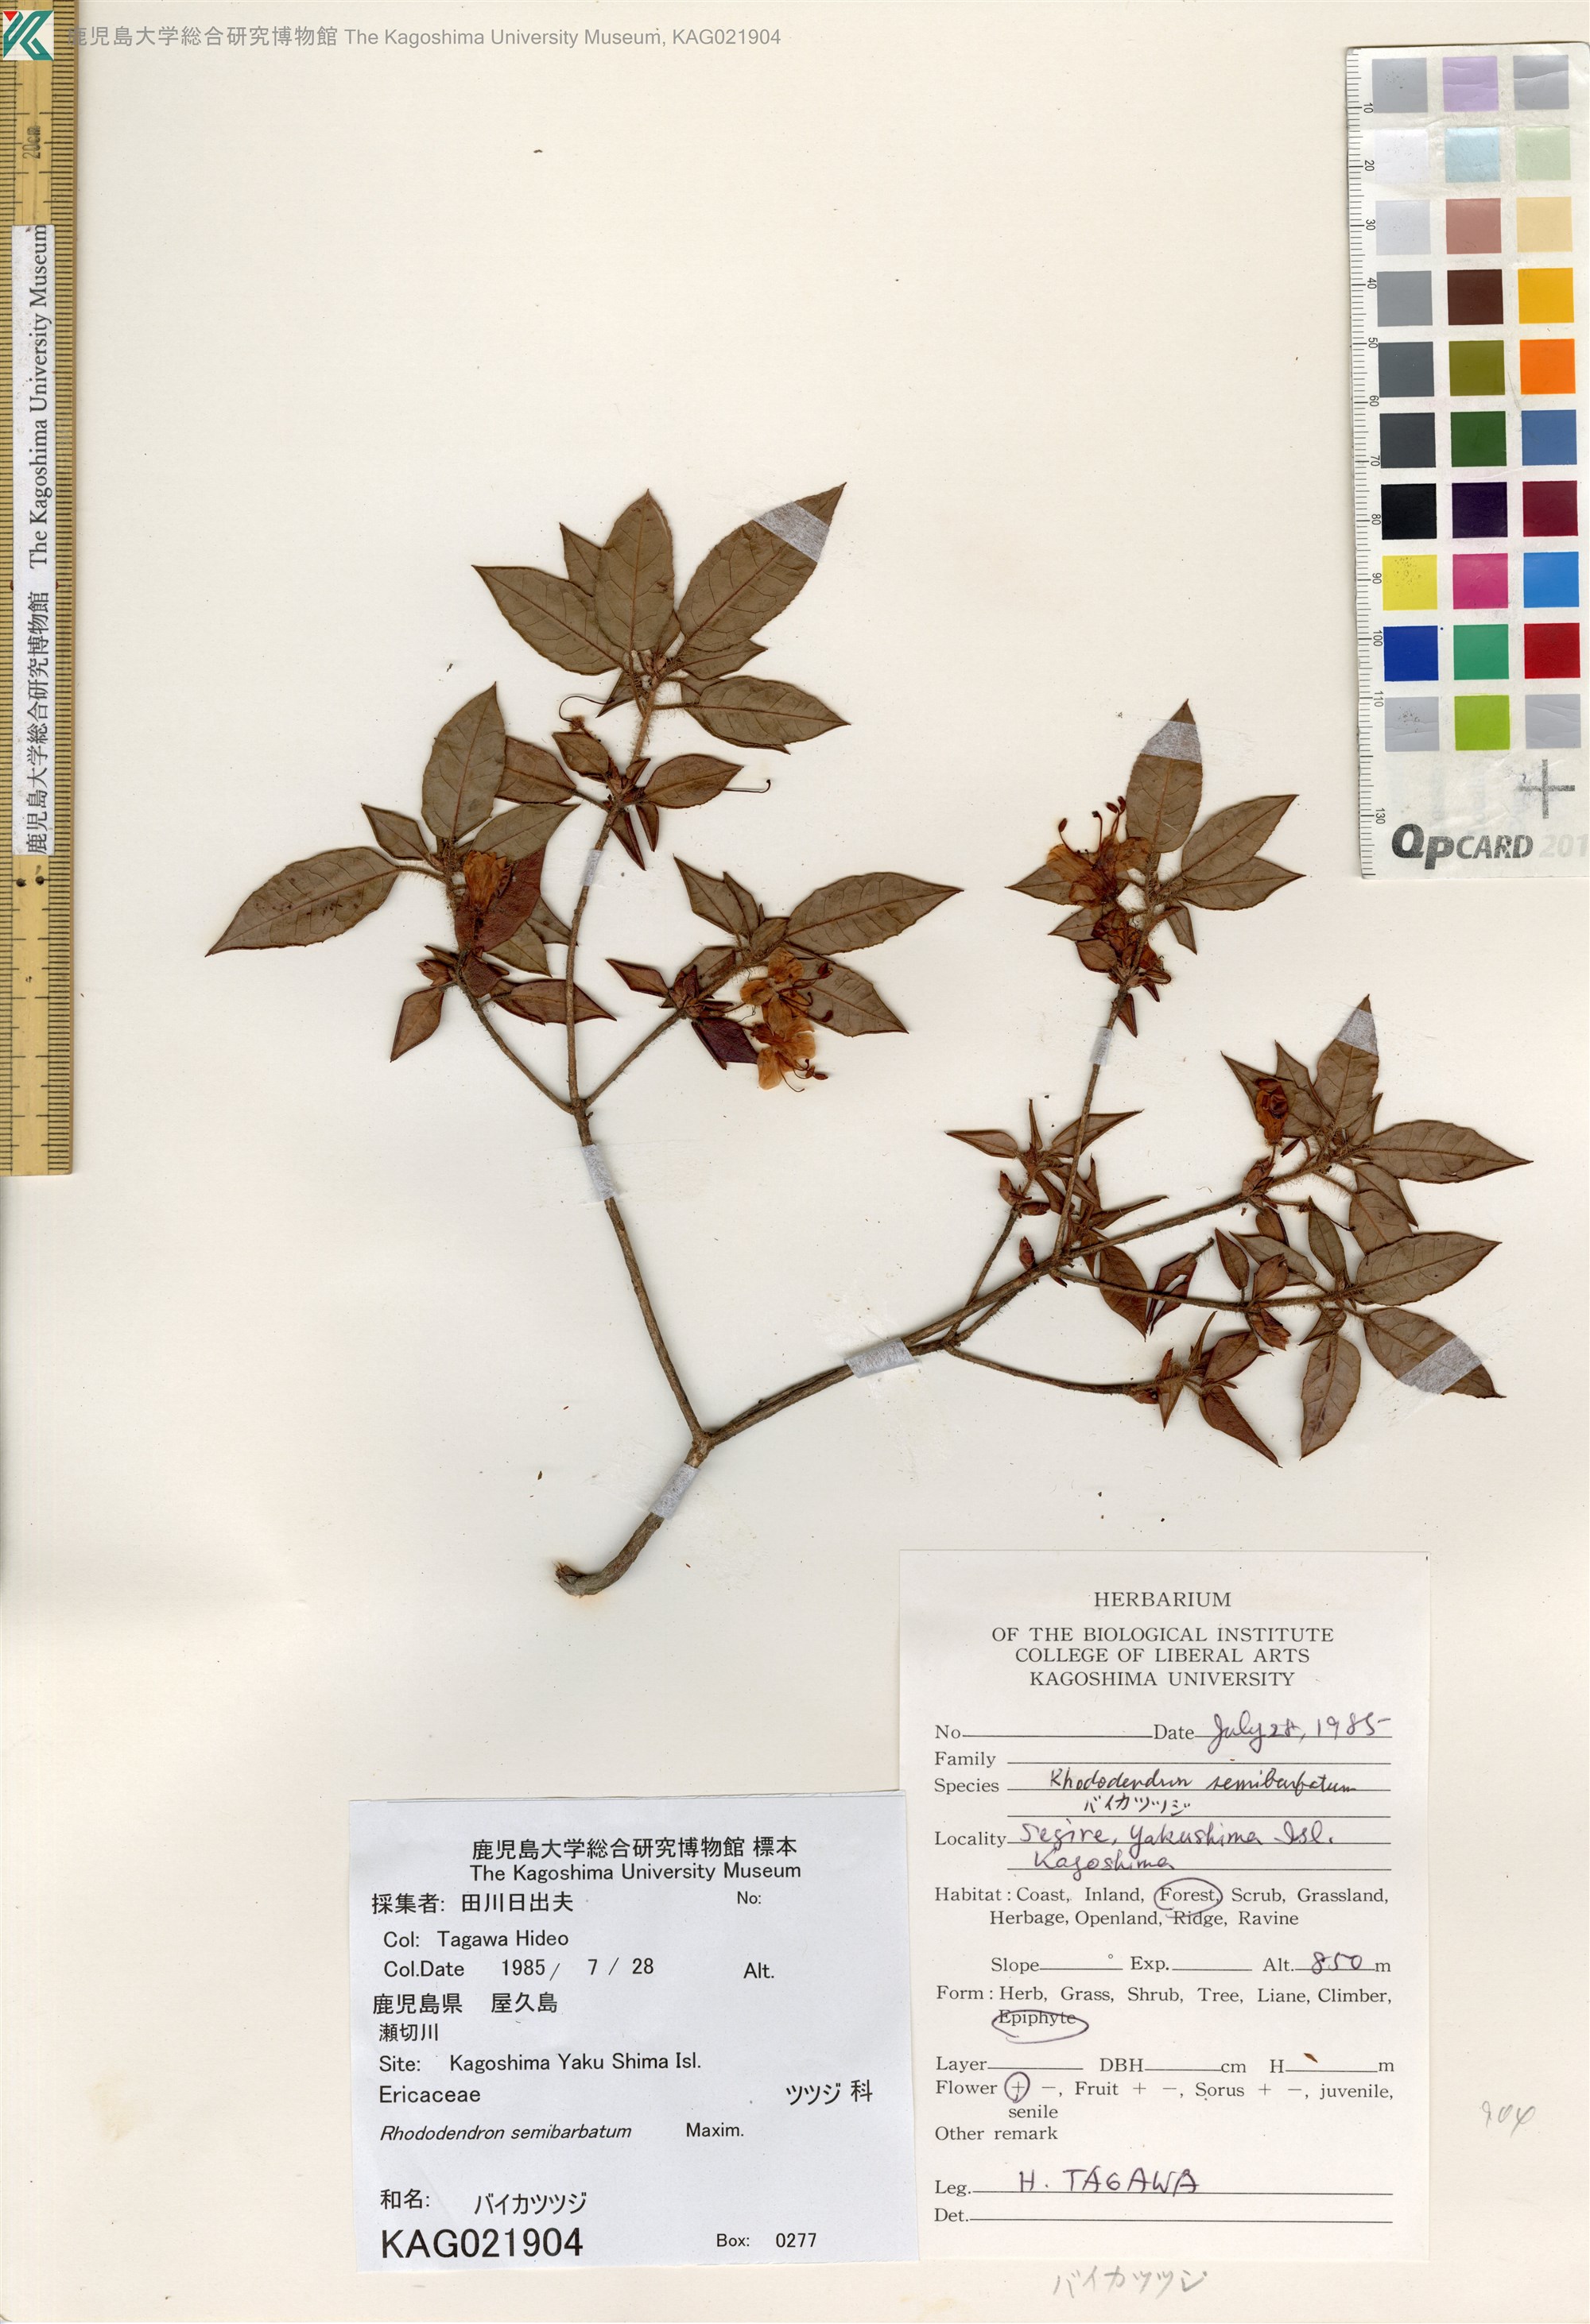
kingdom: Plantae
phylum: Tracheophyta
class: Magnoliopsida
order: Ericales
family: Ericaceae
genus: Rhododendron
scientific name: Rhododendron semibarbatum
